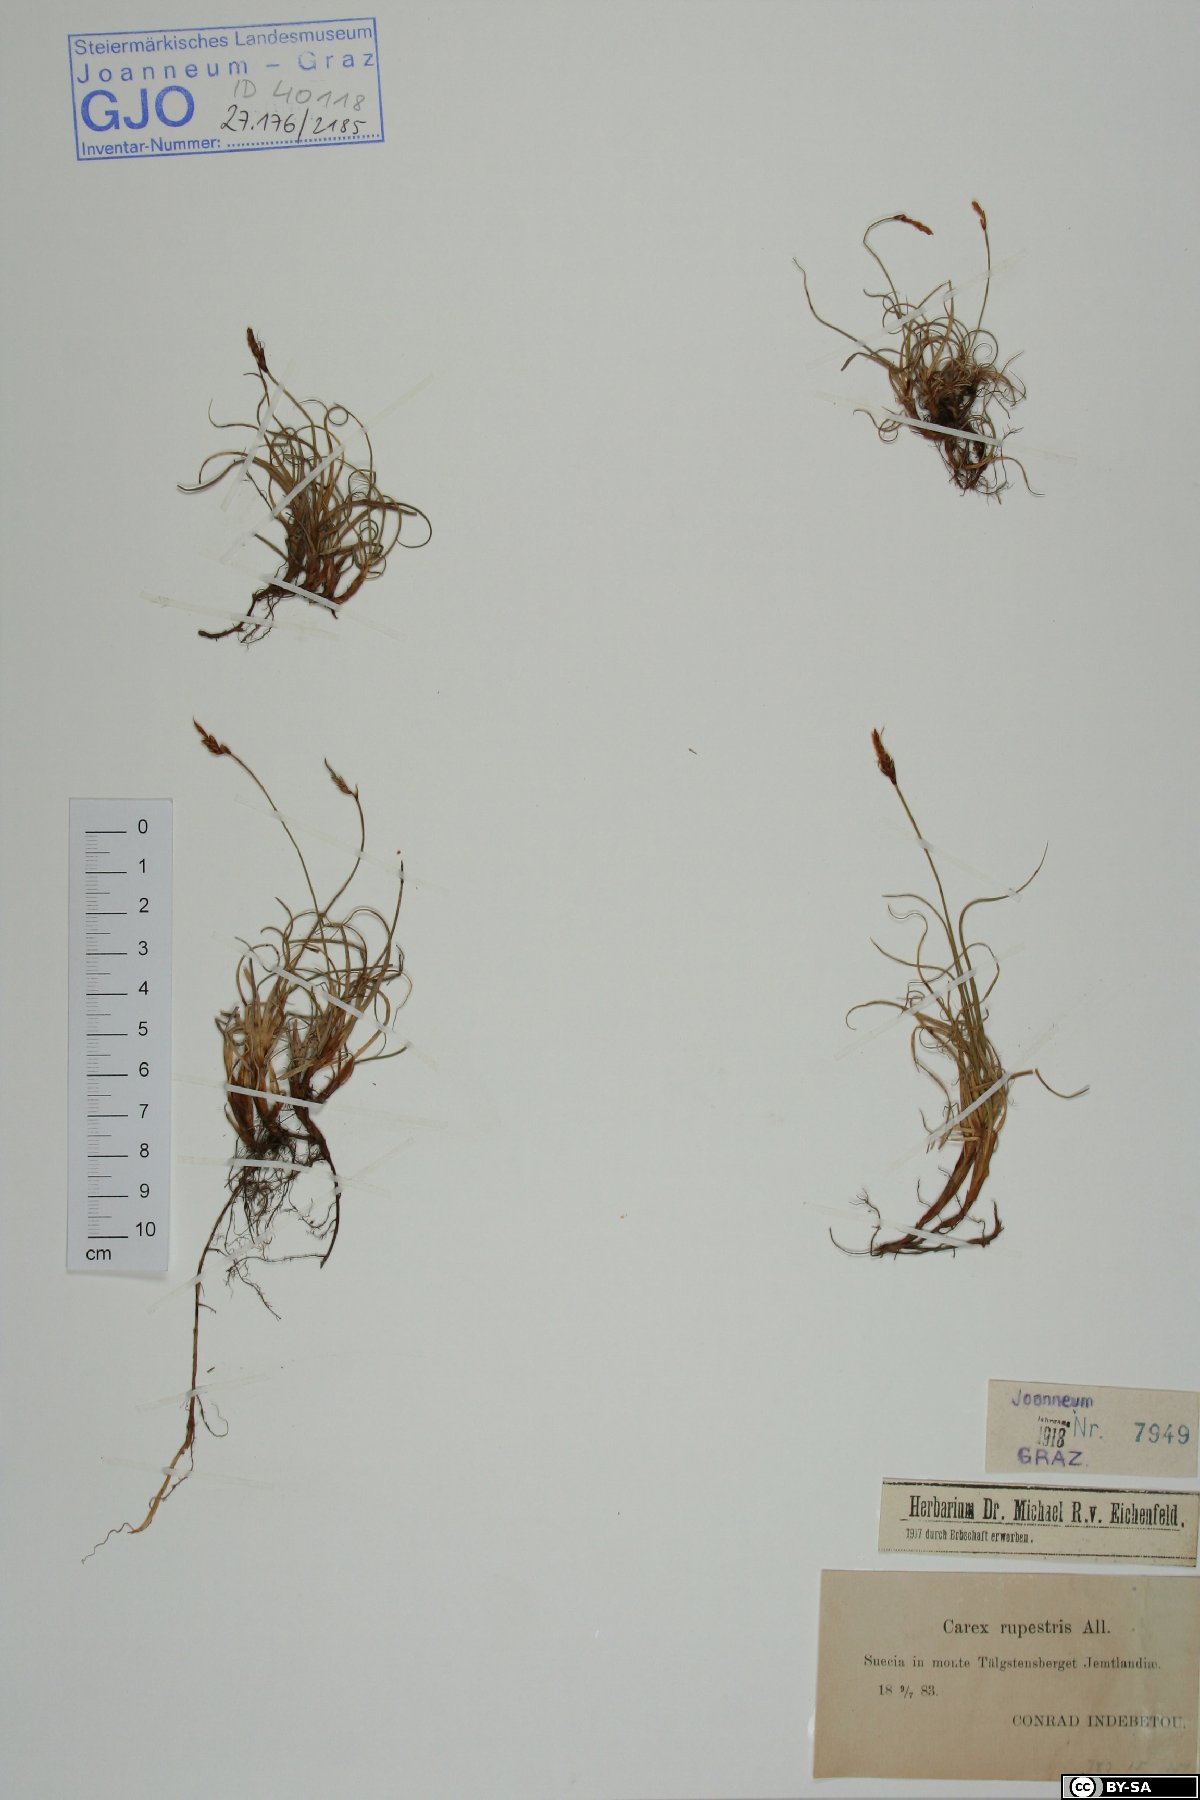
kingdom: Plantae
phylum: Tracheophyta
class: Liliopsida
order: Poales
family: Cyperaceae
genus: Carex
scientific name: Carex rupestris
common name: Rock sedge
